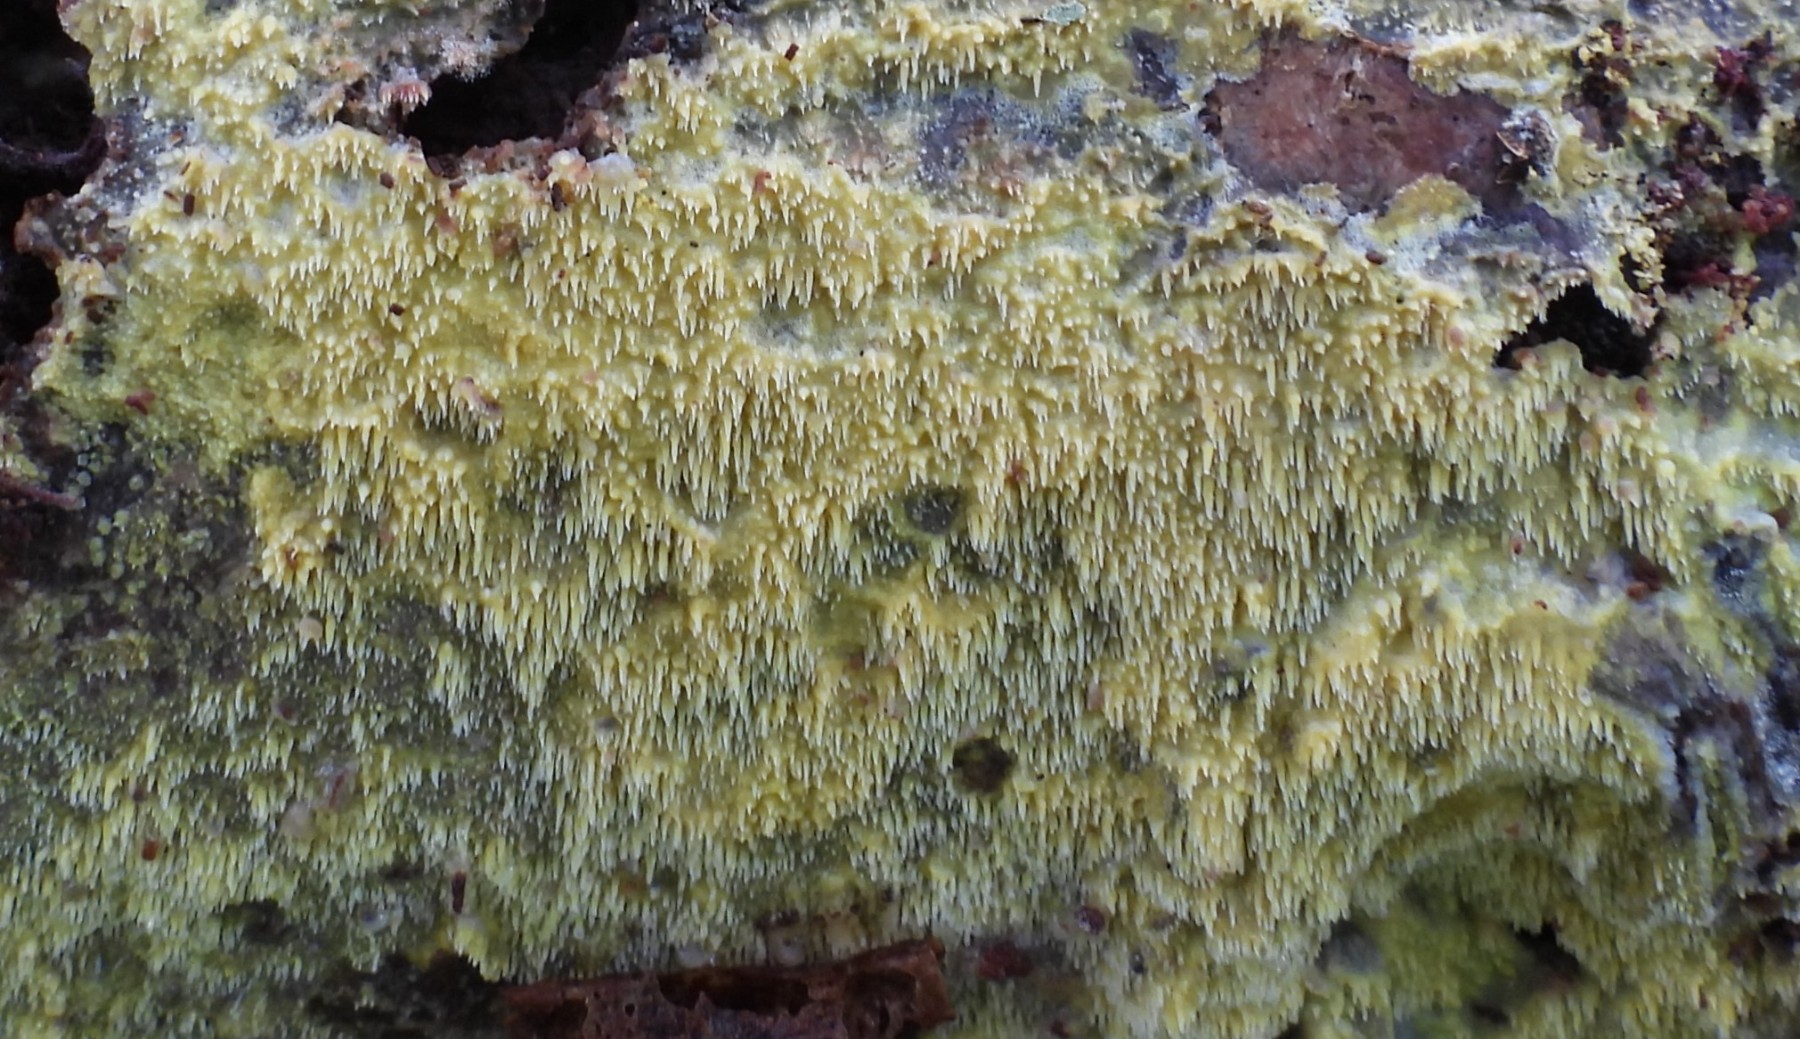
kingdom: Fungi
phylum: Basidiomycota
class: Agaricomycetes
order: Polyporales
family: Meruliaceae
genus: Mycoacia
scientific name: Mycoacia uda
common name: citrongul vokspig
